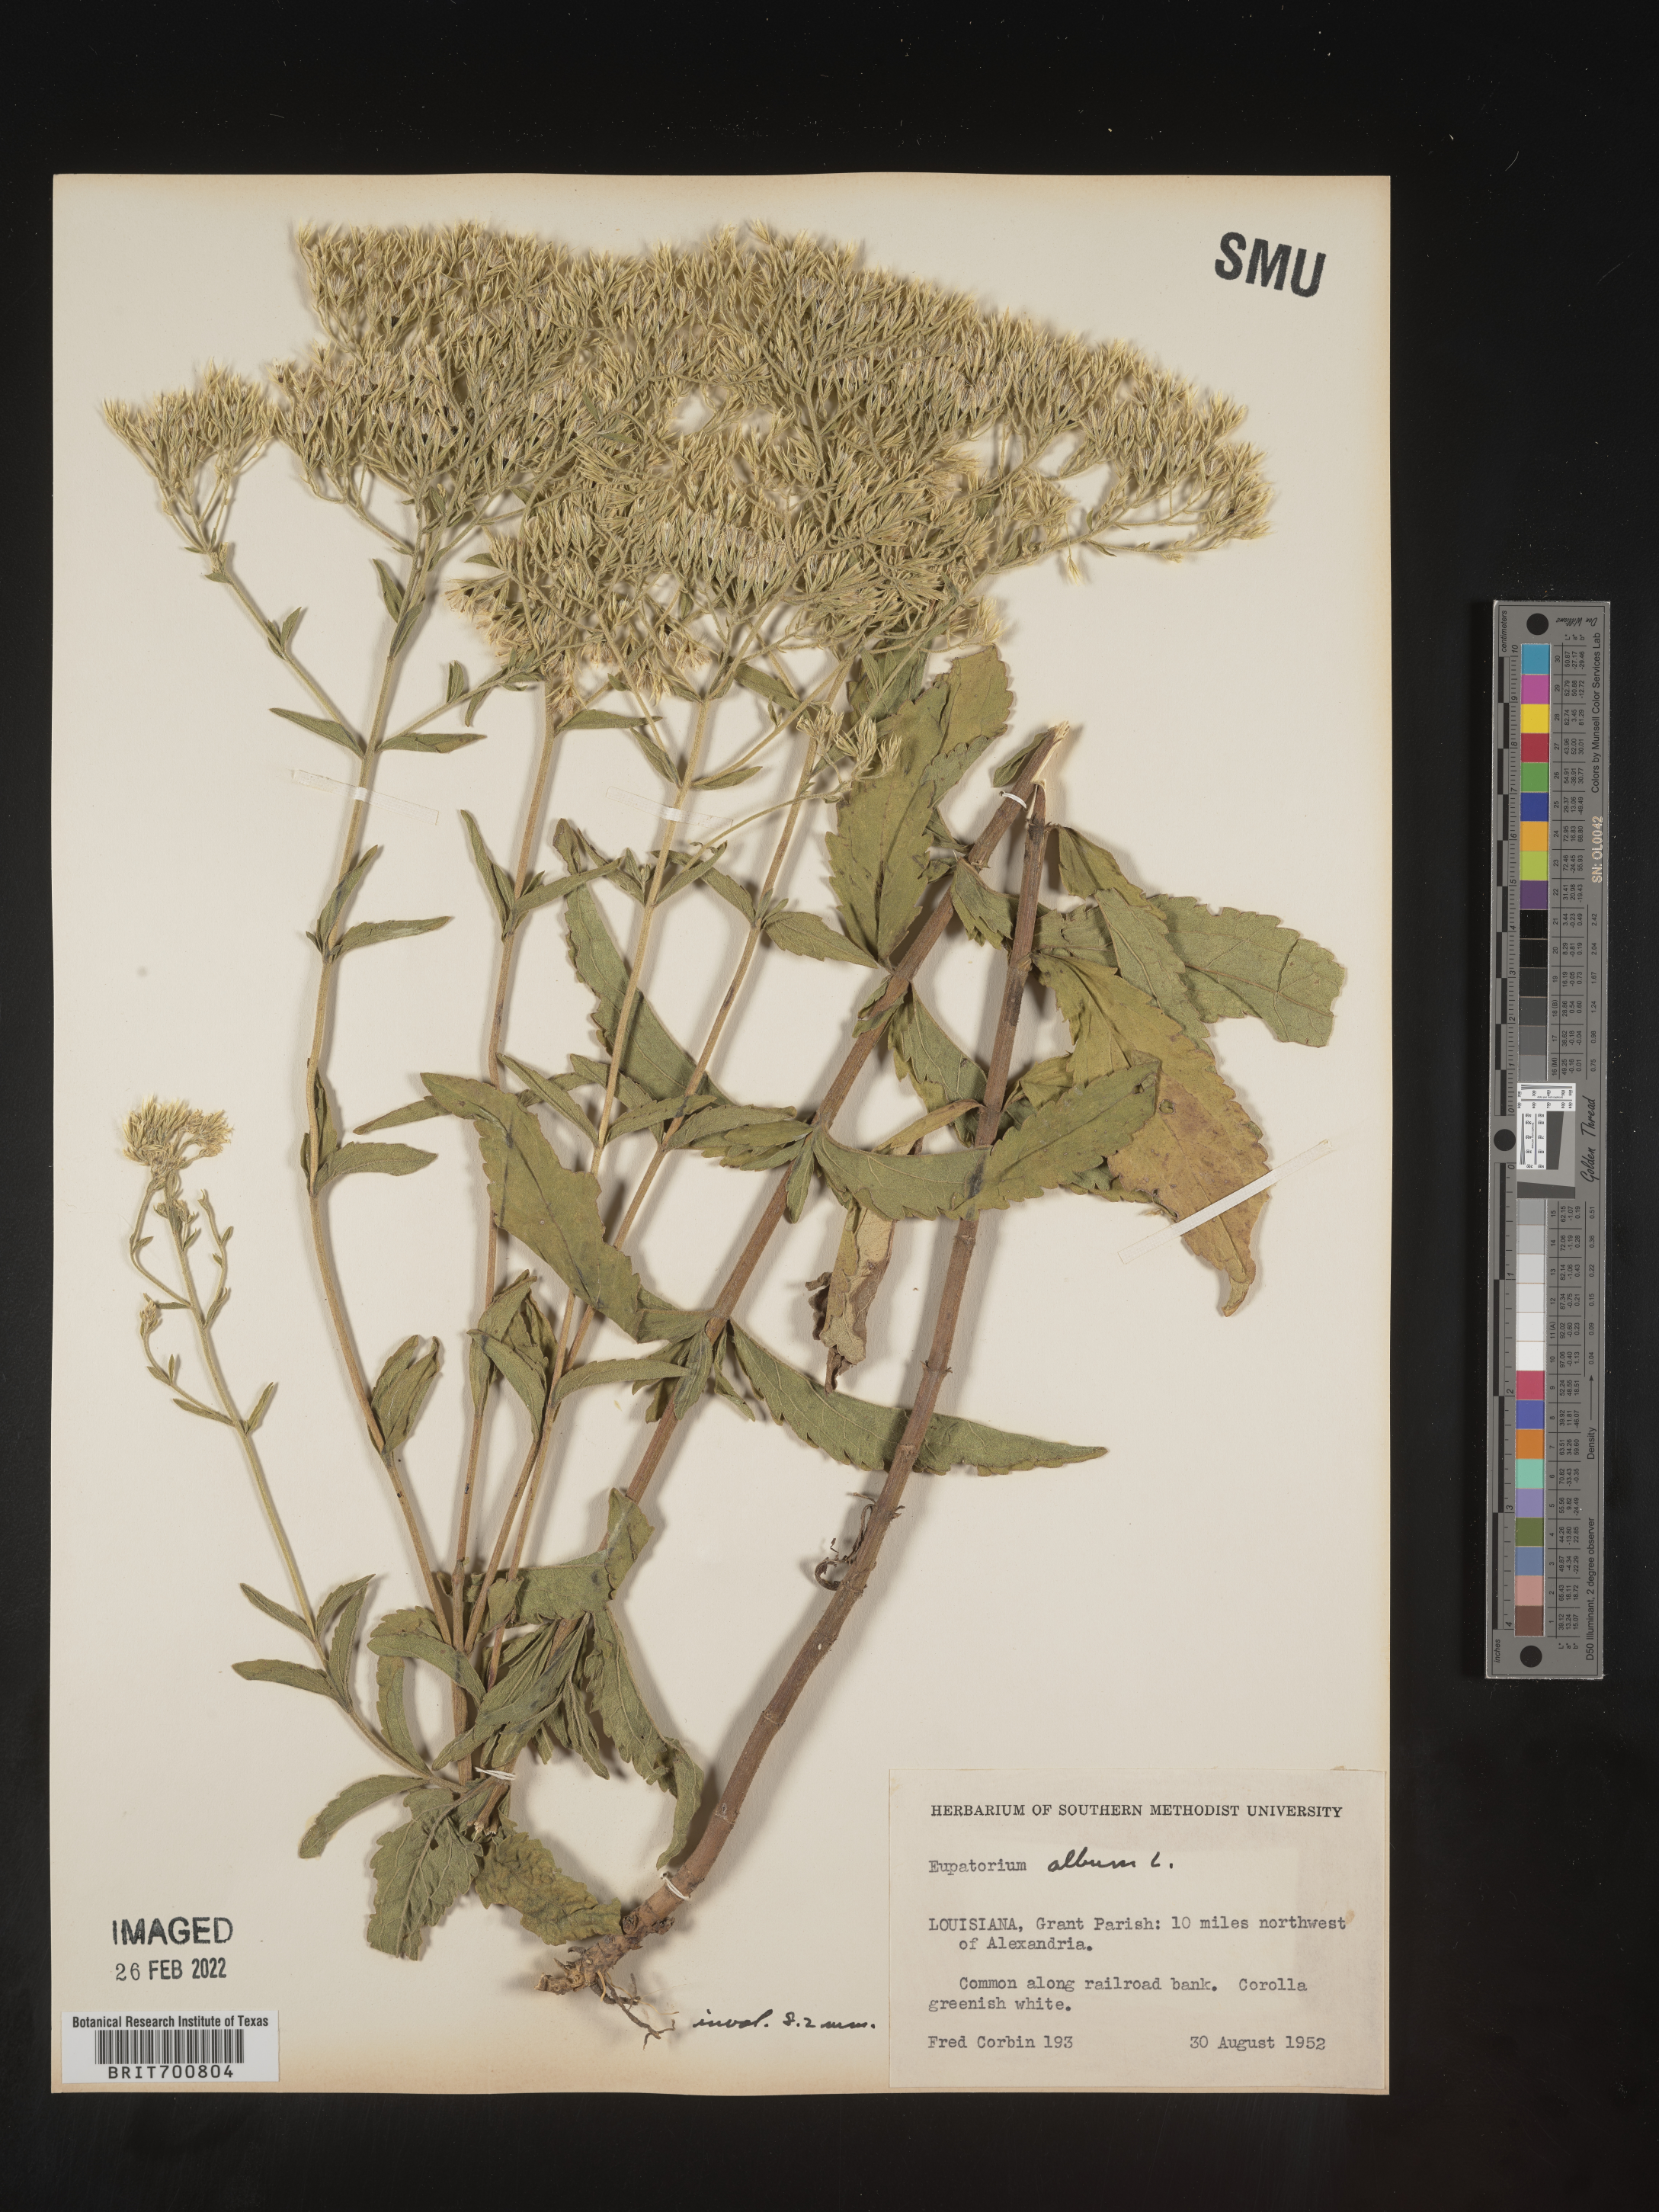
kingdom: Plantae
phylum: Tracheophyta
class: Magnoliopsida
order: Asterales
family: Asteraceae
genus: Eupatorium
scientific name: Eupatorium album
